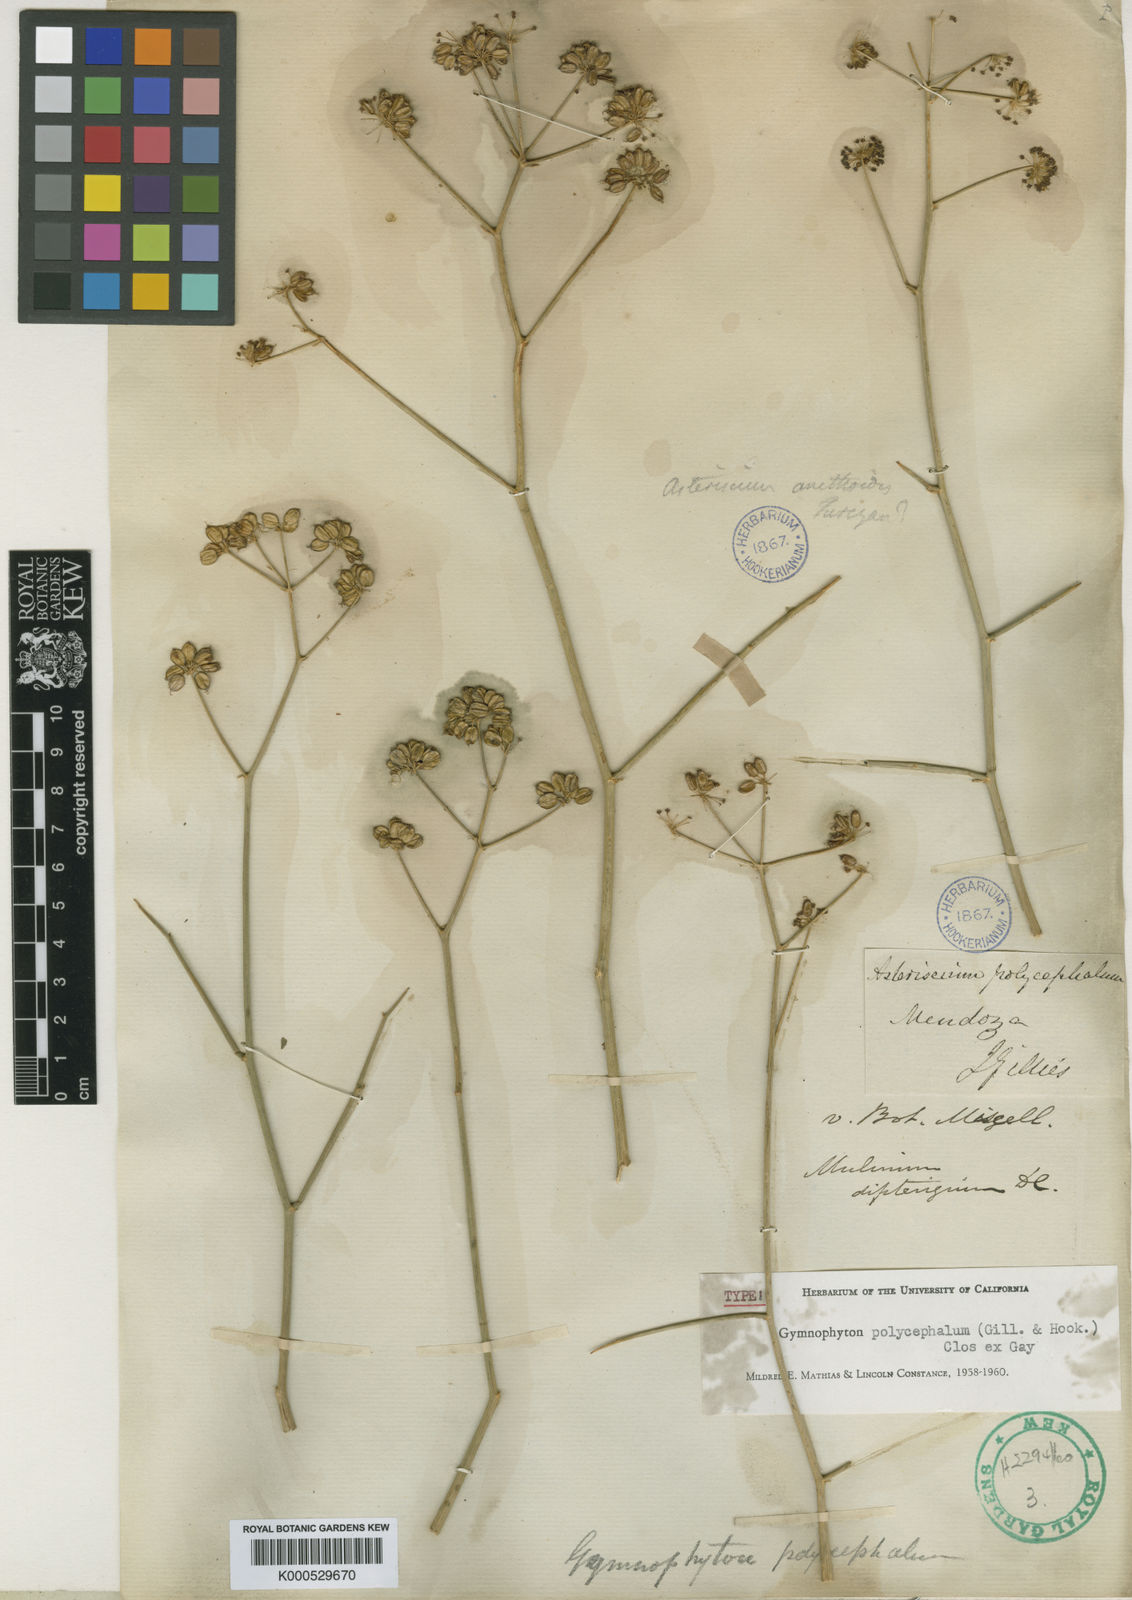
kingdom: Plantae
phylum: Tracheophyta
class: Magnoliopsida
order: Apiales
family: Apiaceae
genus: Gymnophyton
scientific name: Gymnophyton polycephalum
